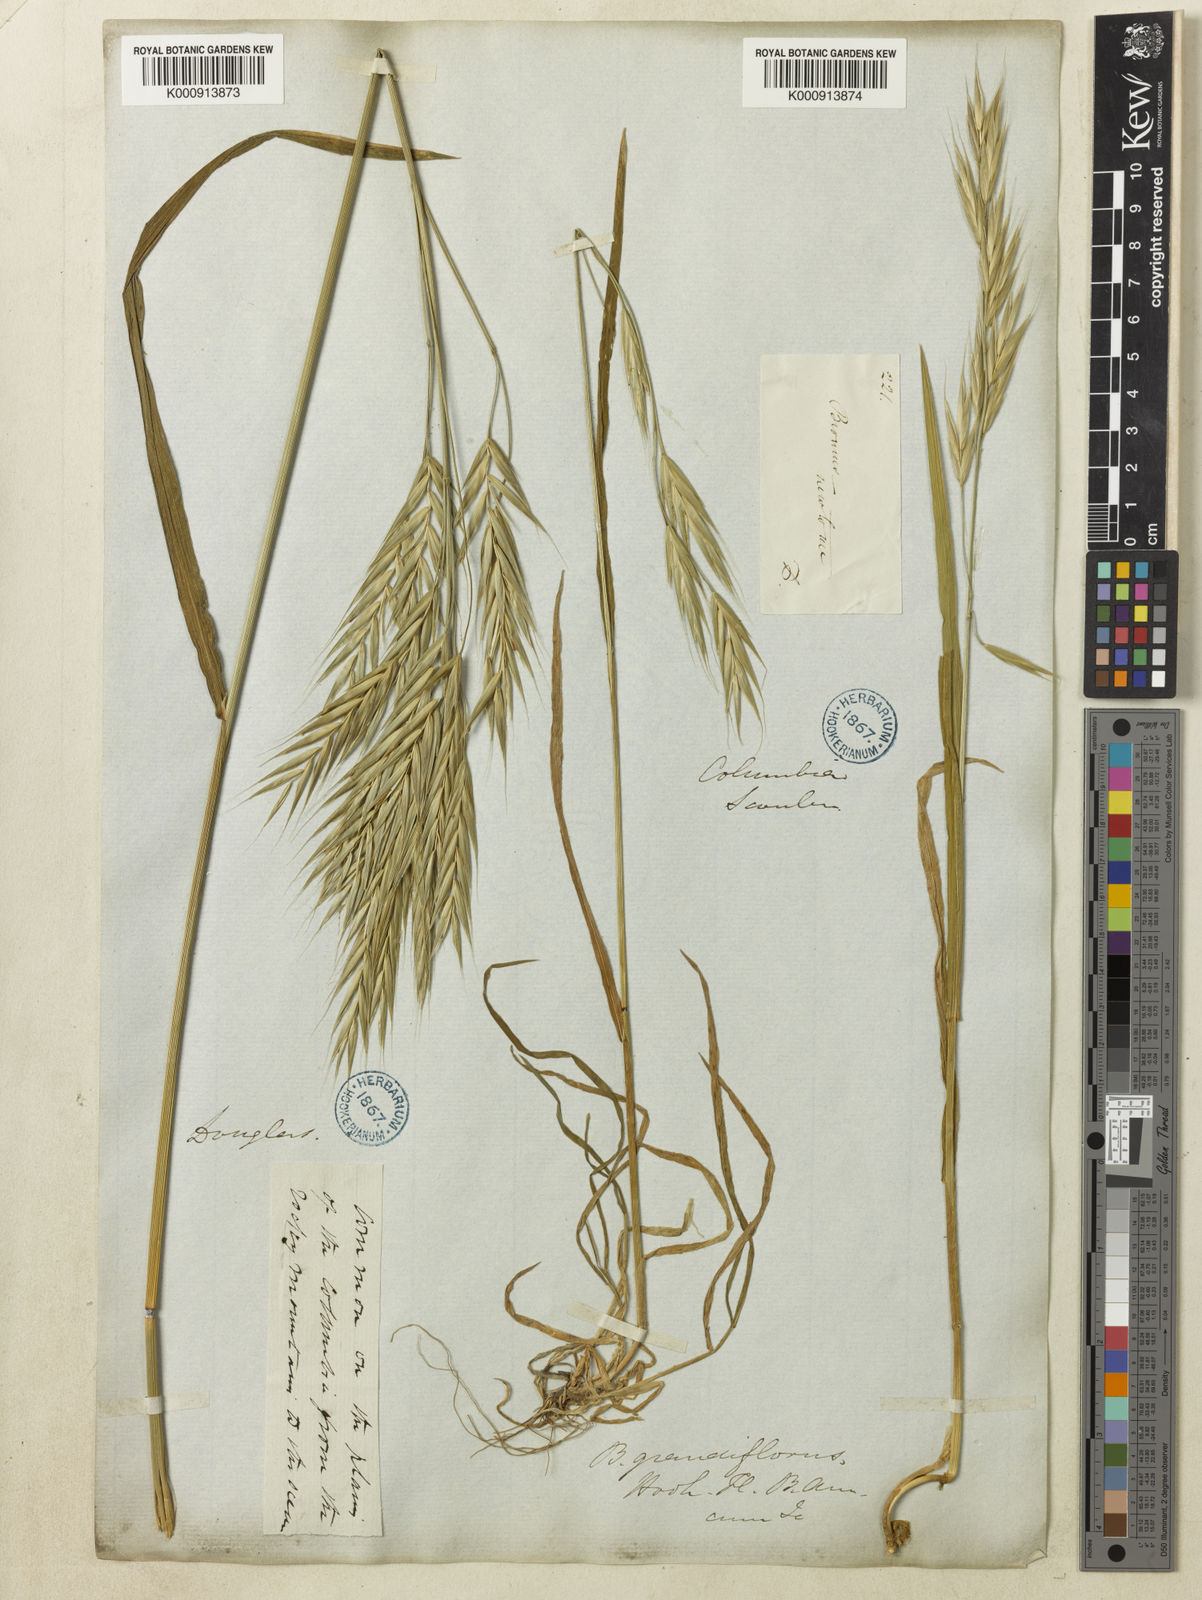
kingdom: Plantae
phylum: Tracheophyta
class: Liliopsida
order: Poales
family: Poaceae
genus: Bromus
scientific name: Bromus carinatus
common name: Mountain brome
